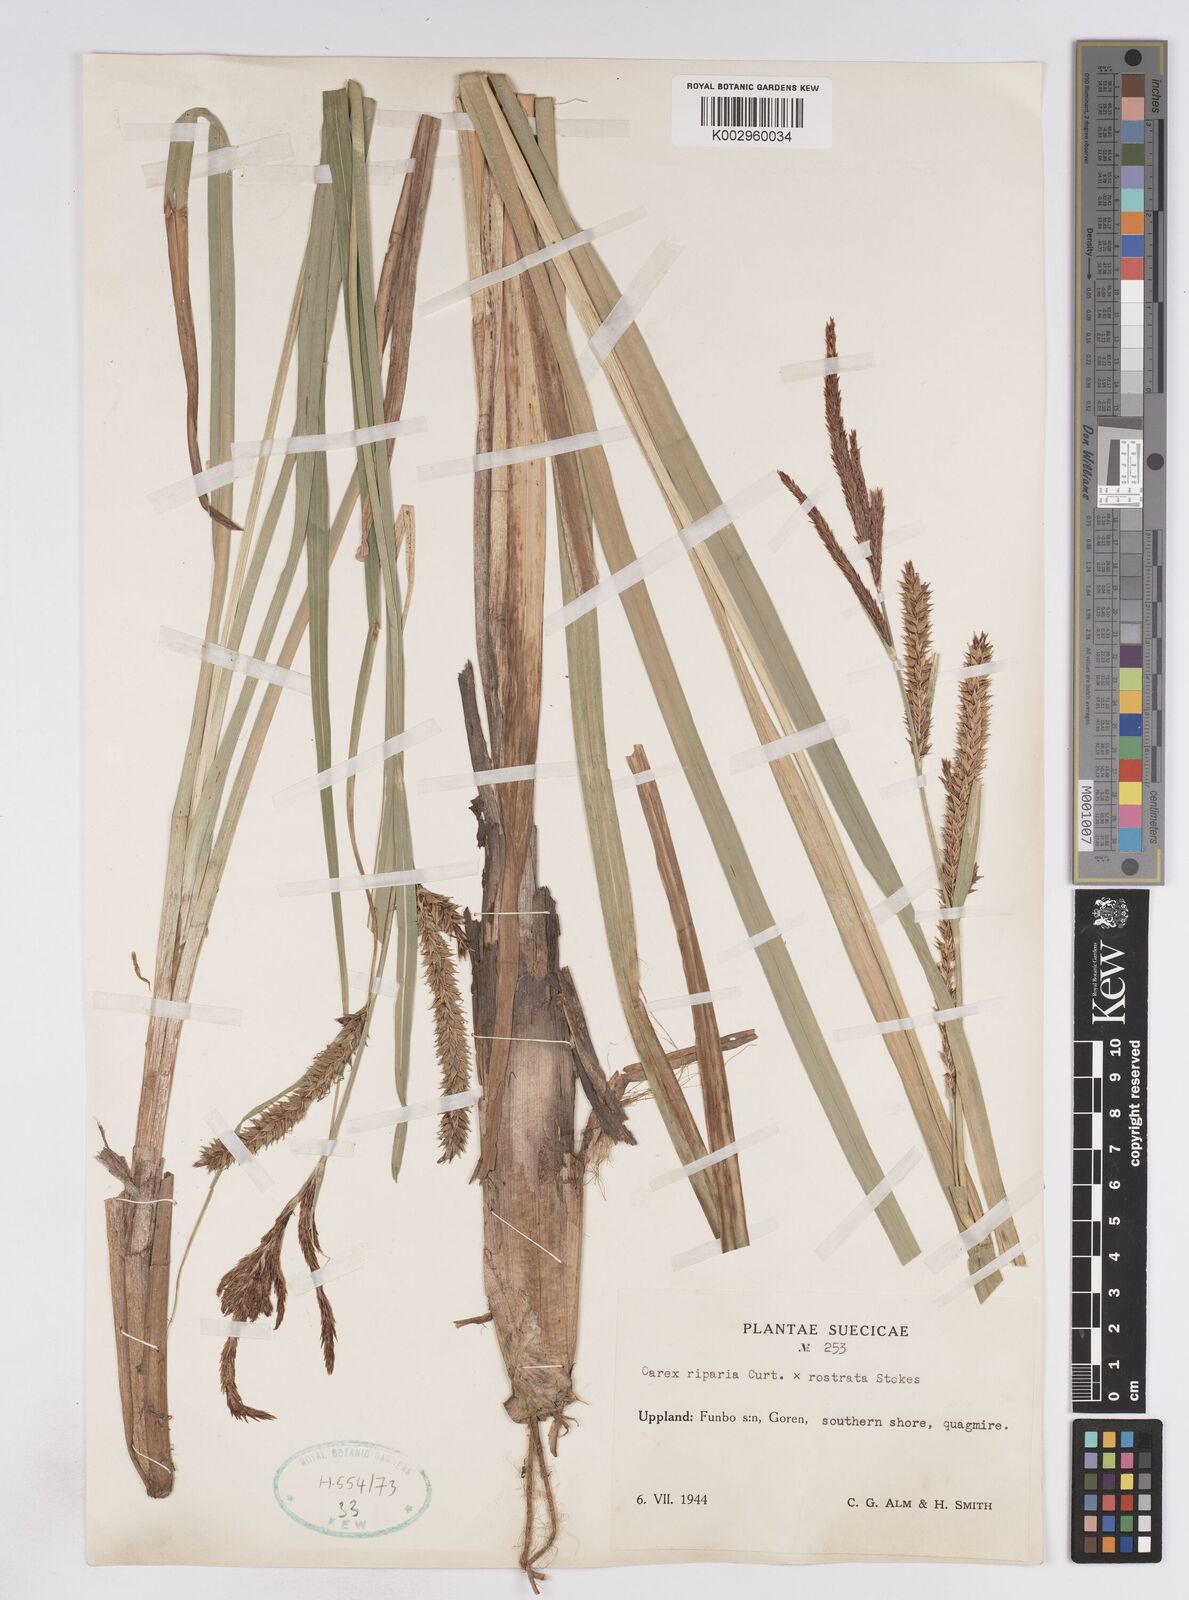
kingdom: Plantae
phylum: Tracheophyta
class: Liliopsida
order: Poales
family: Cyperaceae
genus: Carex
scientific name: Carex
